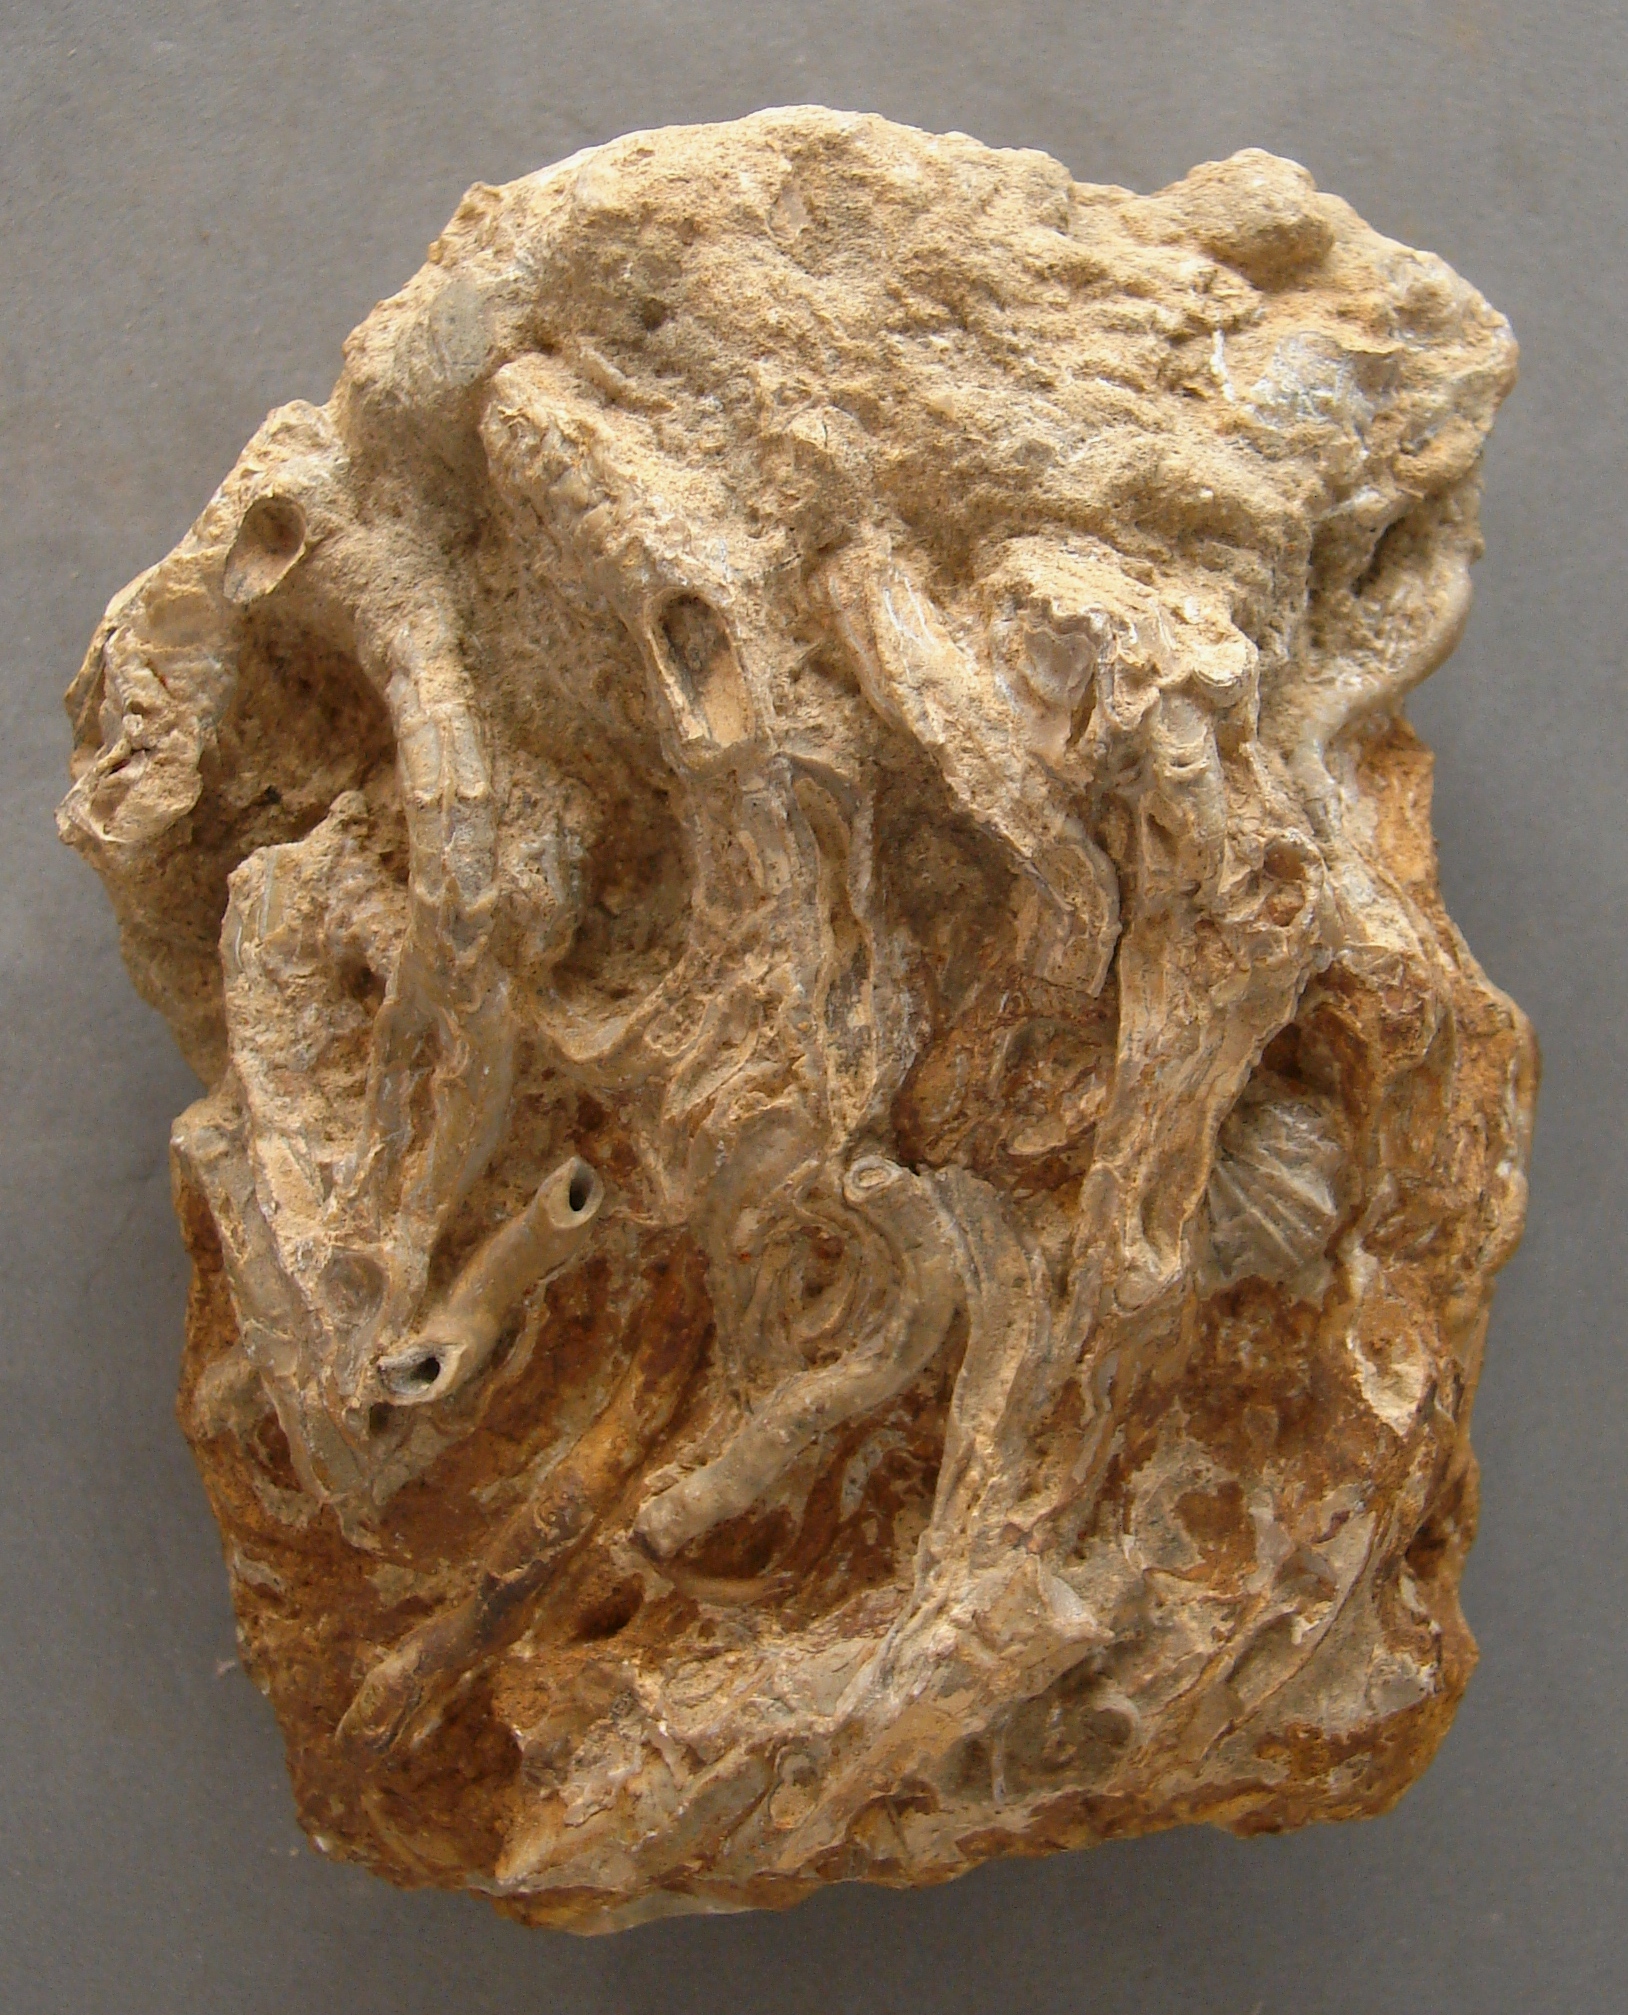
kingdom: Animalia
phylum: Mollusca
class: Gastropoda
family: Turritellidae
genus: Vermicularia
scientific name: Vermicularia lumbricalis
